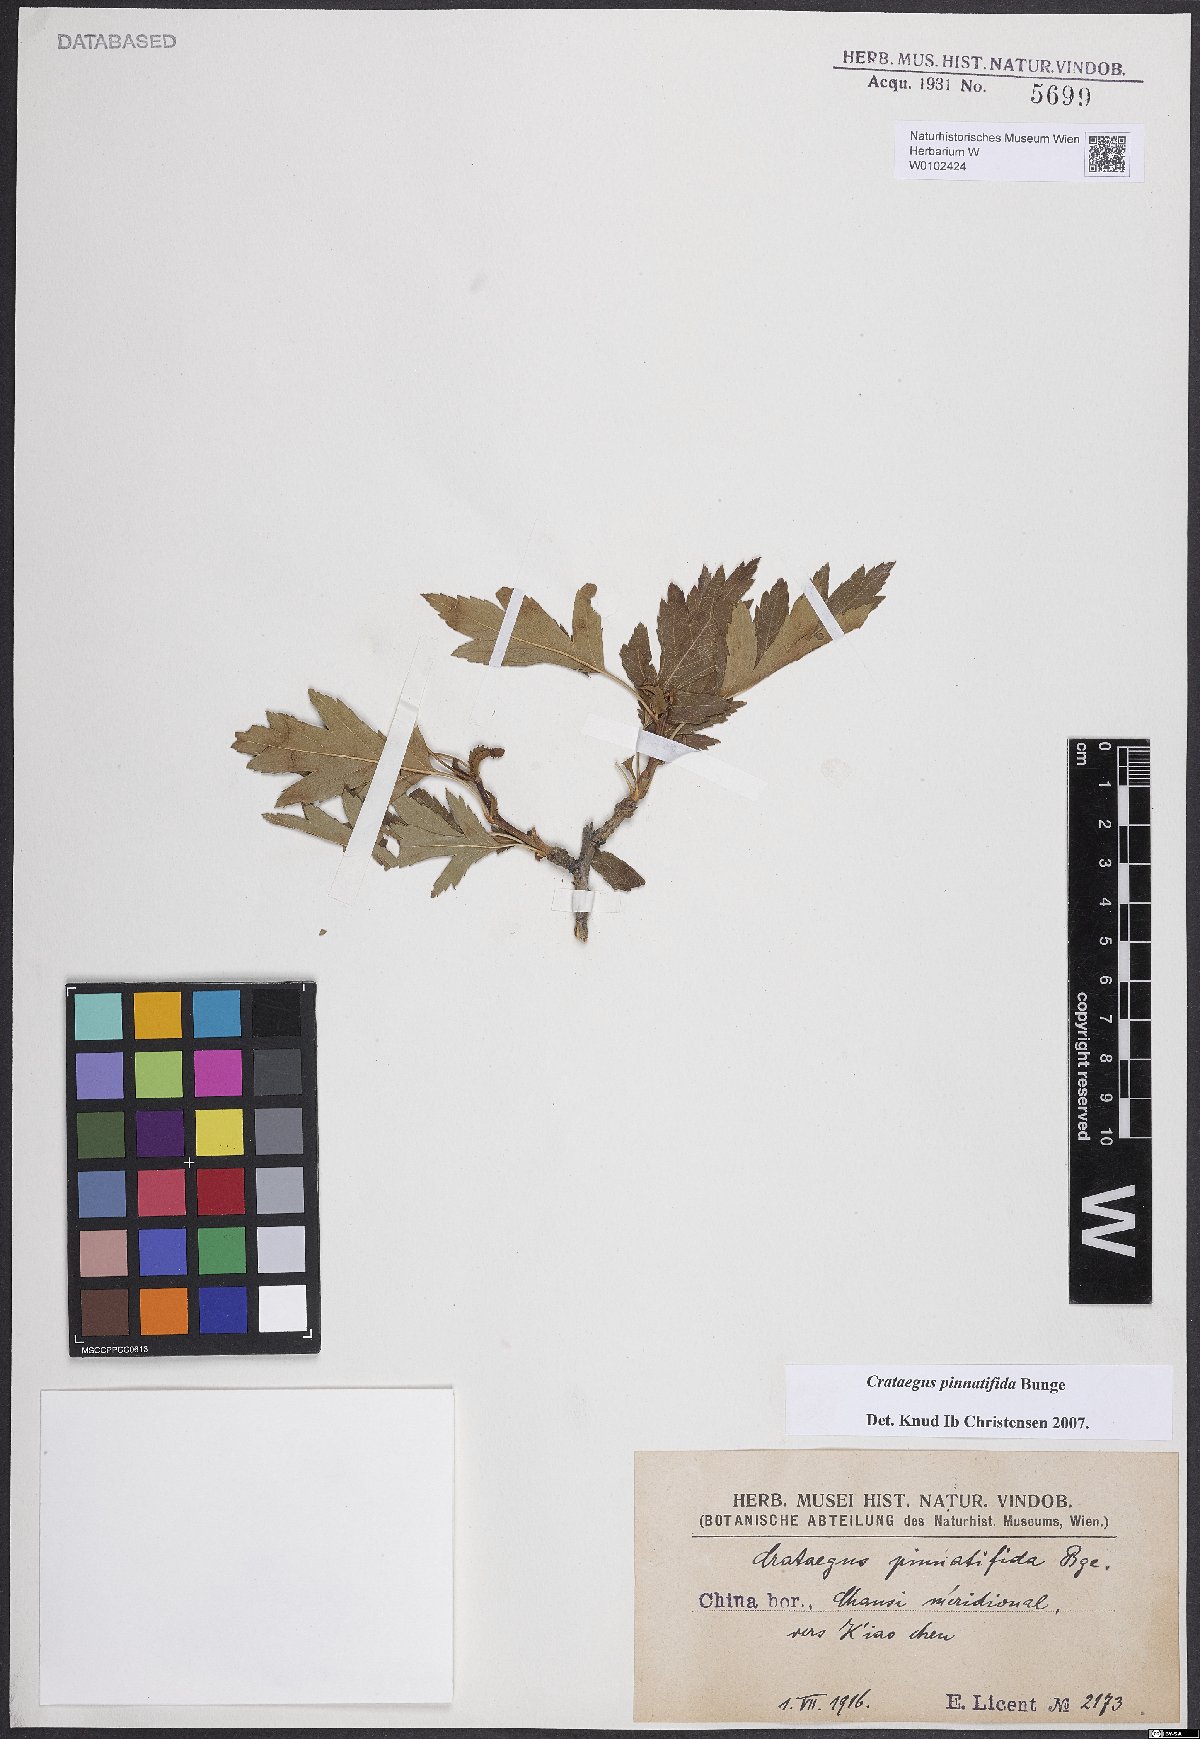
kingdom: Plantae
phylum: Tracheophyta
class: Magnoliopsida
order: Rosales
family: Rosaceae
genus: Crataegus
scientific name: Crataegus pinnatifida
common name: Chinese haw
